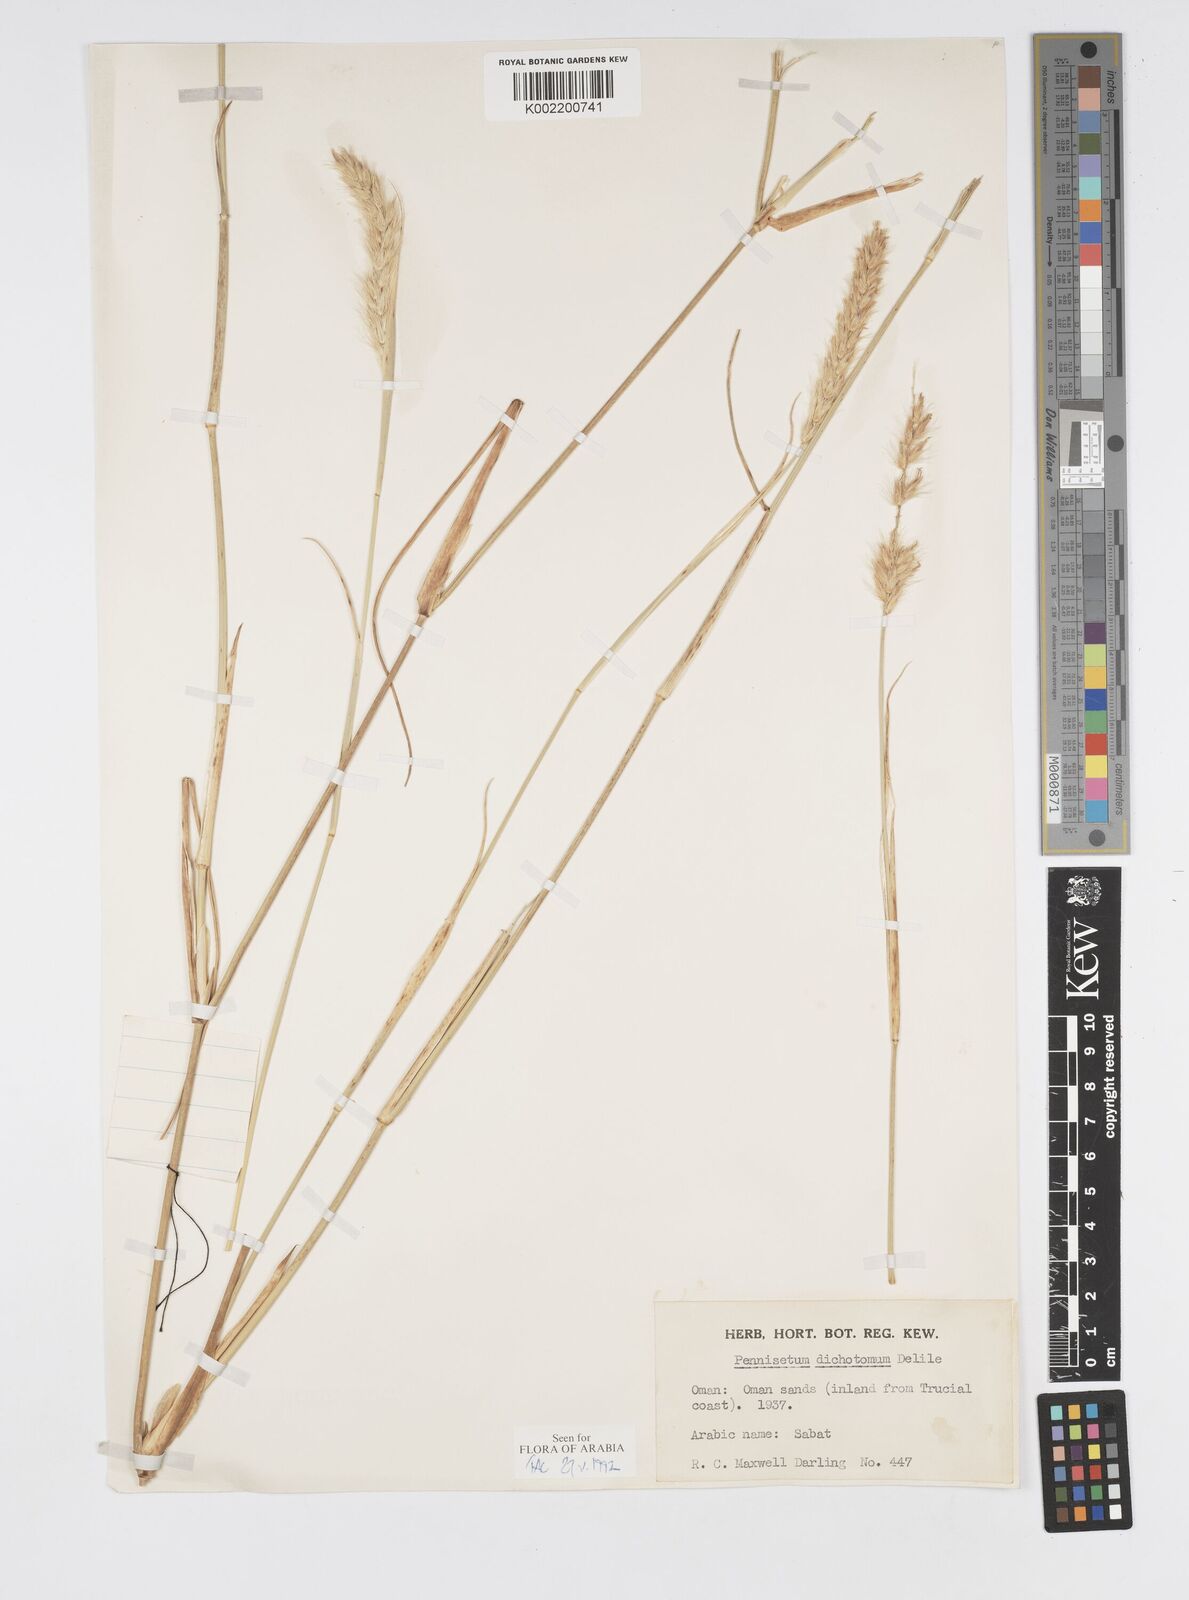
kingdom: Plantae
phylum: Tracheophyta
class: Liliopsida
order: Poales
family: Poaceae
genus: Cenchrus
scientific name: Cenchrus divisus
